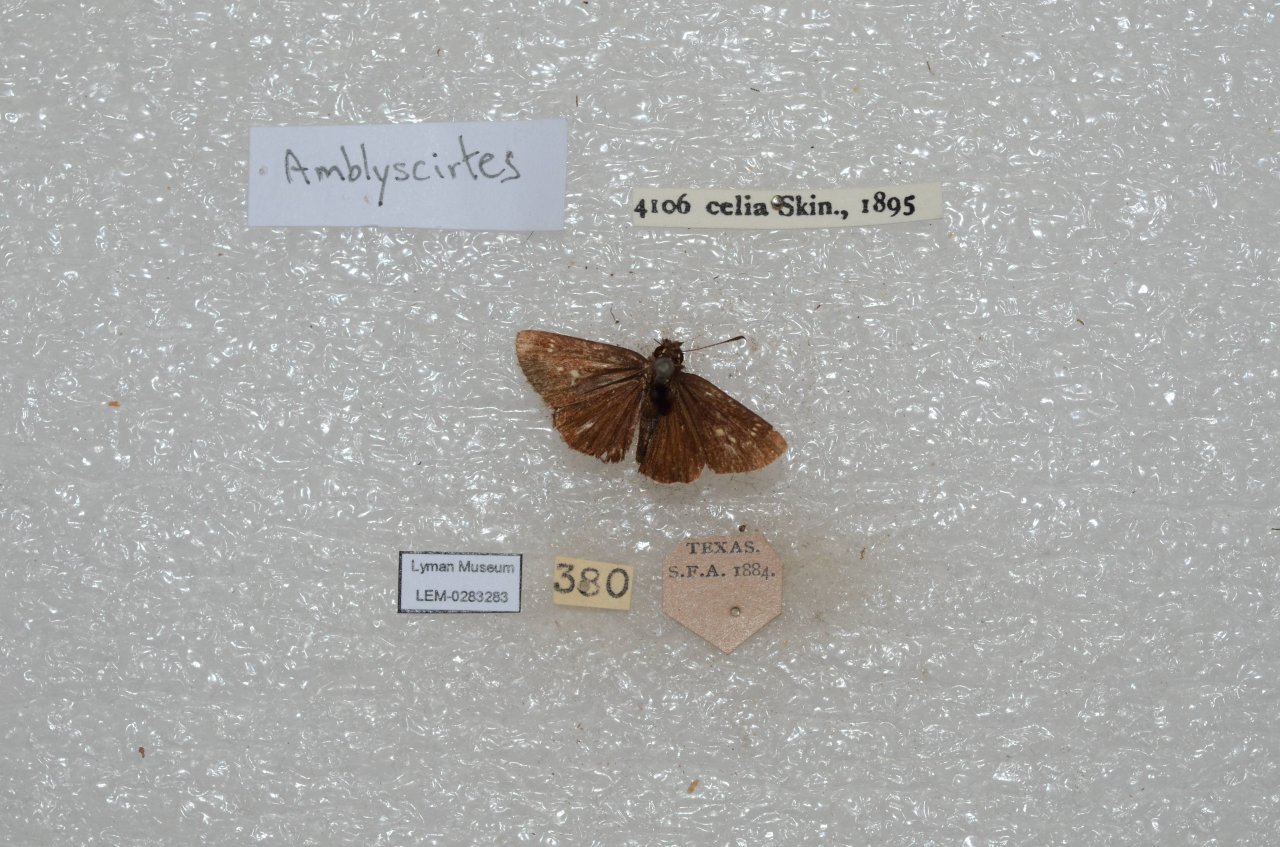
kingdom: Animalia
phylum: Arthropoda
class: Insecta
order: Lepidoptera
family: Hesperiidae
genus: Mastor
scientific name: Mastor celia
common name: Celia's Roadside-Skipper
